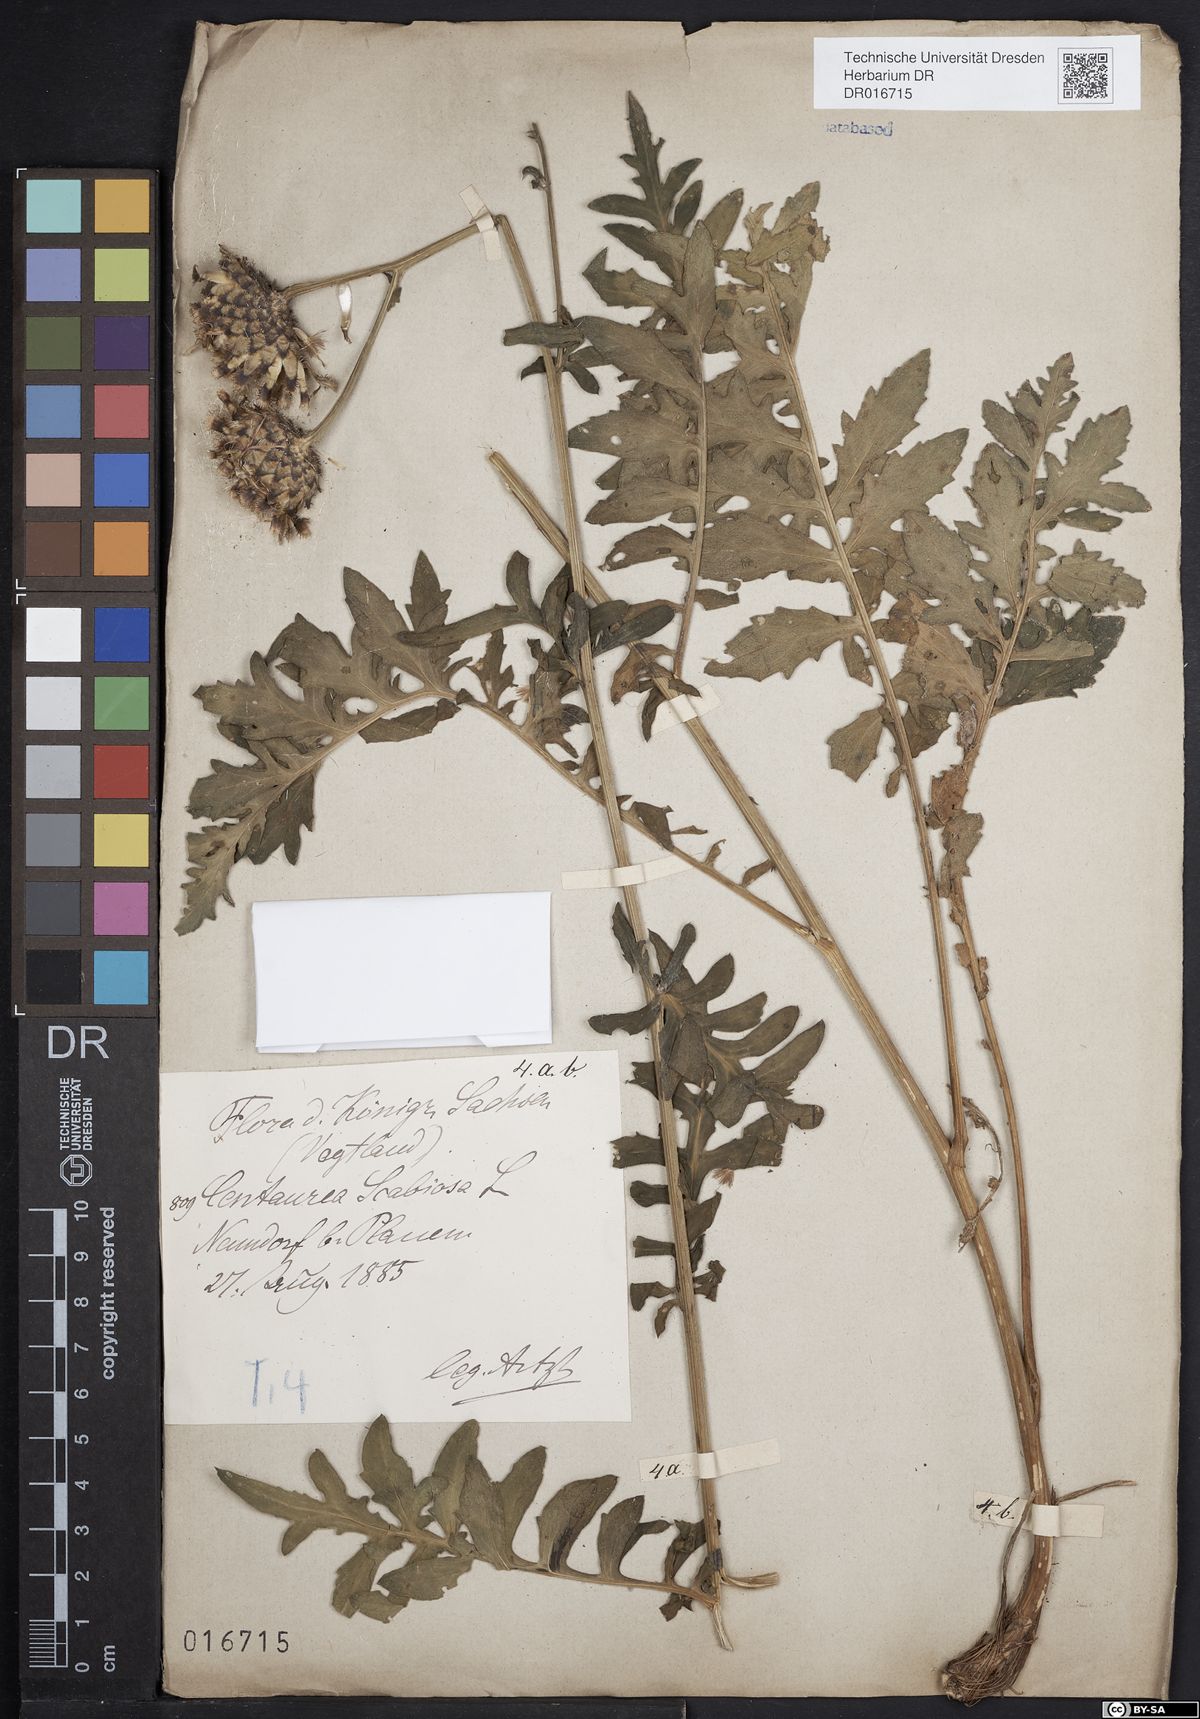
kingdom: Plantae
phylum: Tracheophyta
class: Magnoliopsida
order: Asterales
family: Asteraceae
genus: Centaurea
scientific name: Centaurea scabiosa
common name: Greater knapweed
